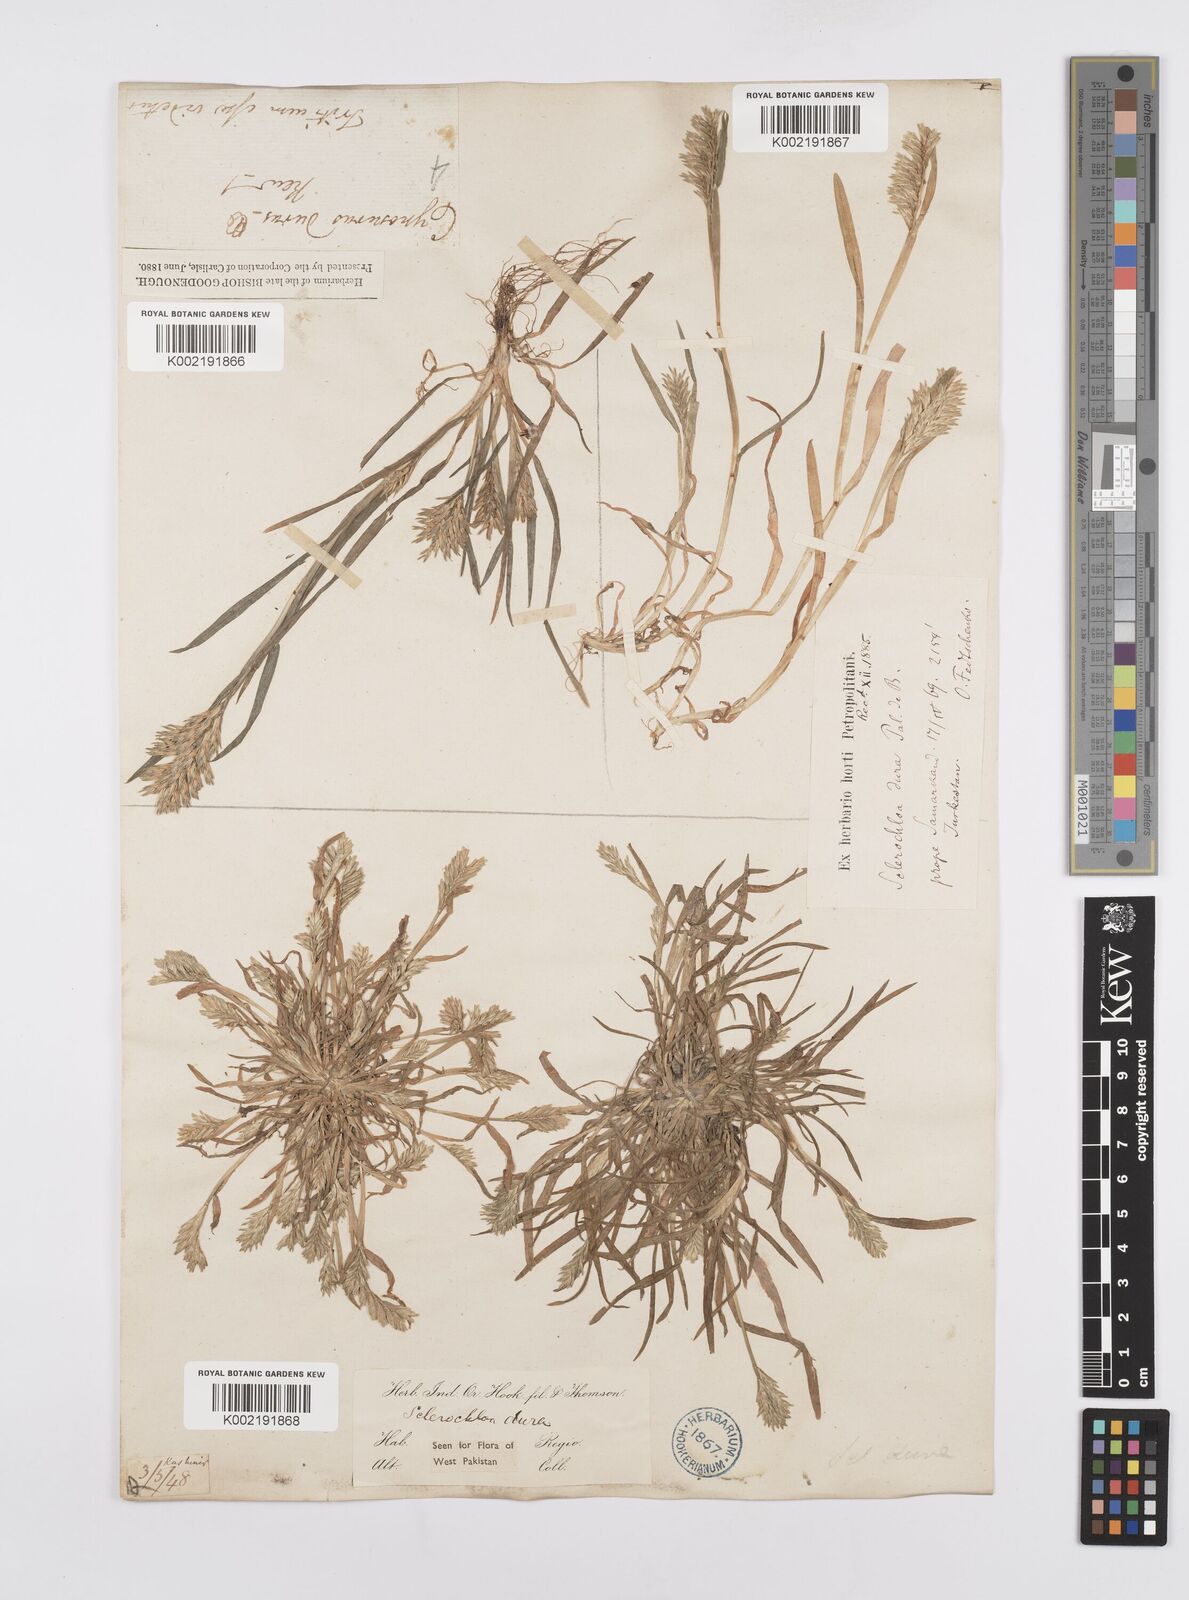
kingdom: Plantae
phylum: Tracheophyta
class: Liliopsida
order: Poales
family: Poaceae
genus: Sclerochloa
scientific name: Sclerochloa dura
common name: Common hardgrass
